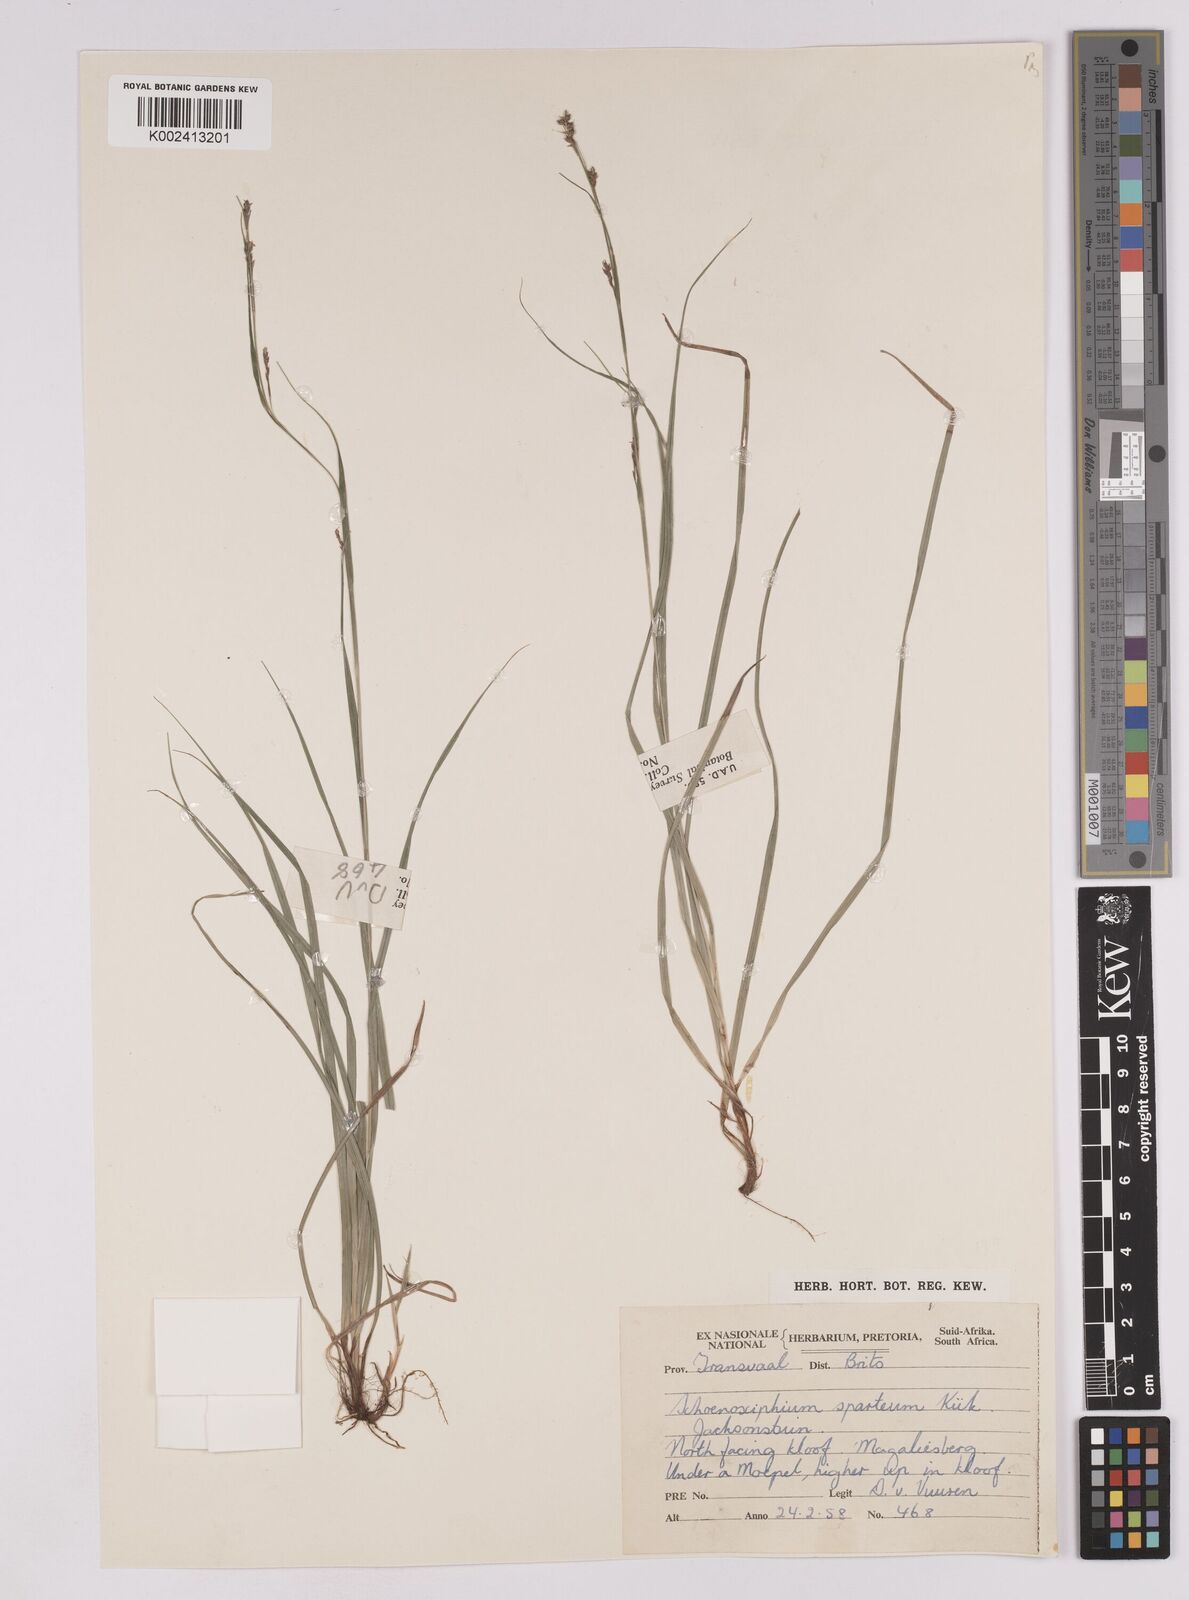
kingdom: Plantae
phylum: Tracheophyta
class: Liliopsida
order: Poales
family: Cyperaceae
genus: Carex
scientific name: Carex spartea
